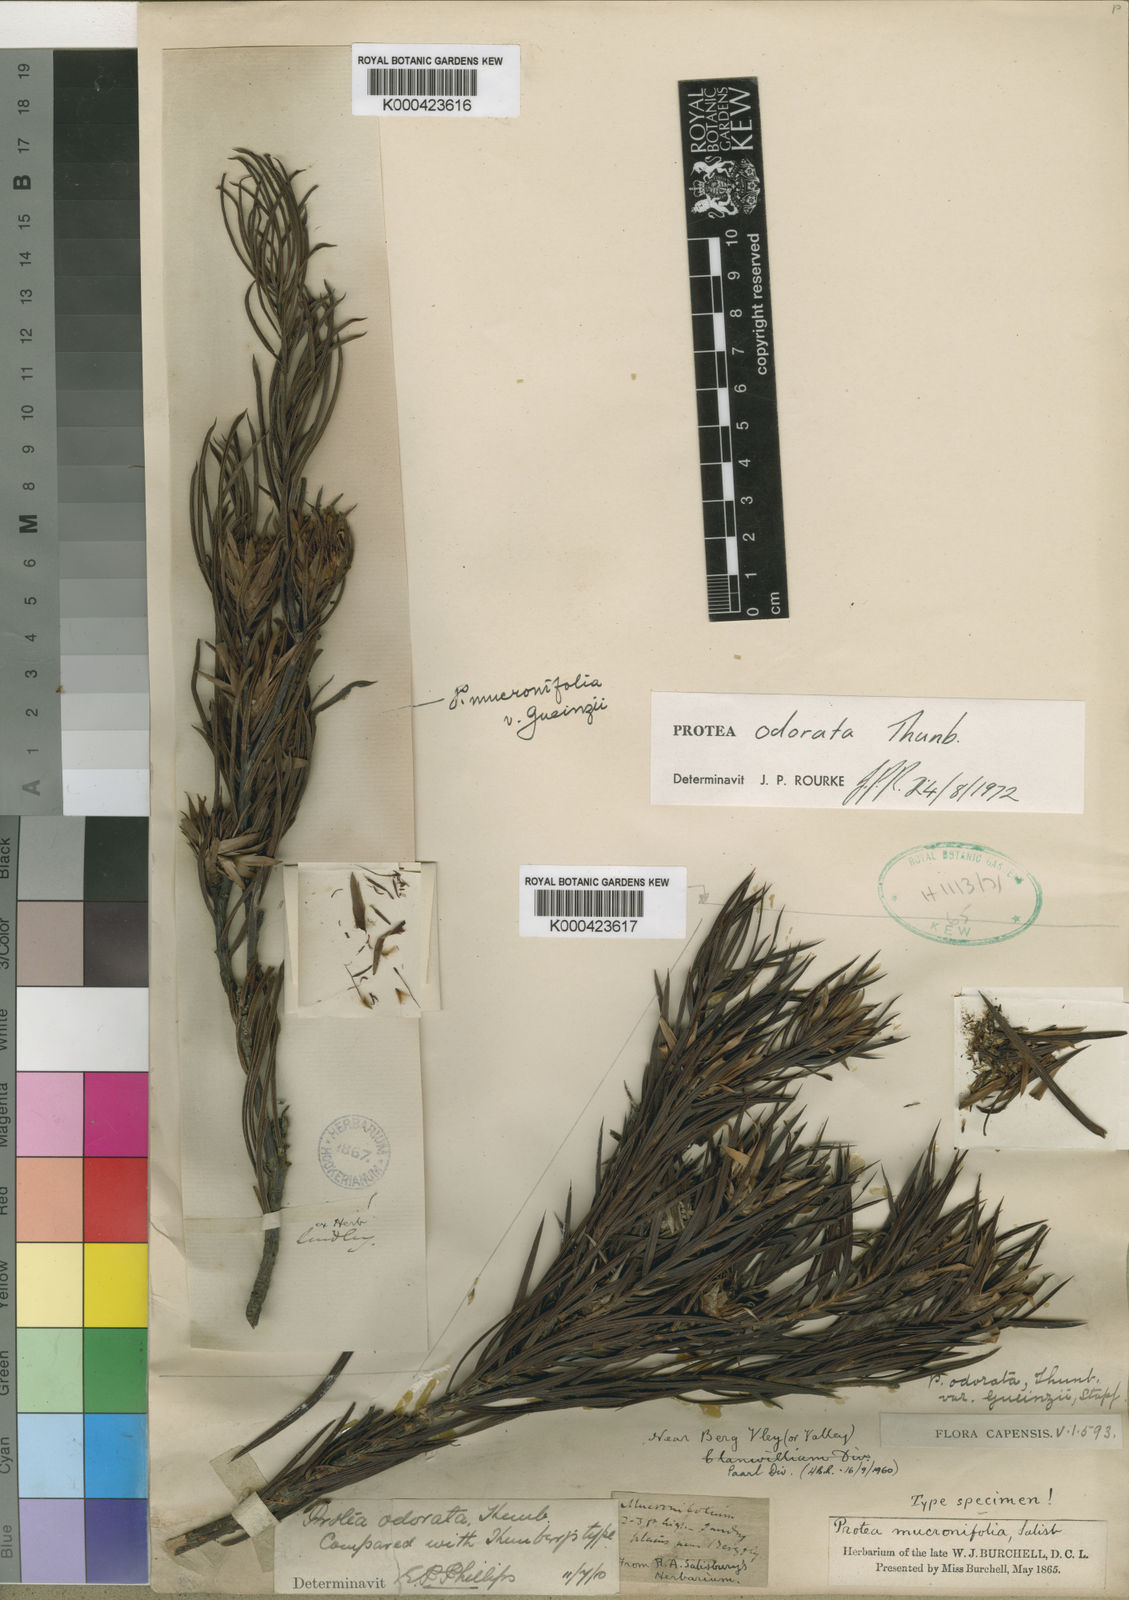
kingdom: Plantae
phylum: Tracheophyta
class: Magnoliopsida
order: Proteales
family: Proteaceae
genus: Protea
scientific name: Protea odorata
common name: Swartland sugarbush
